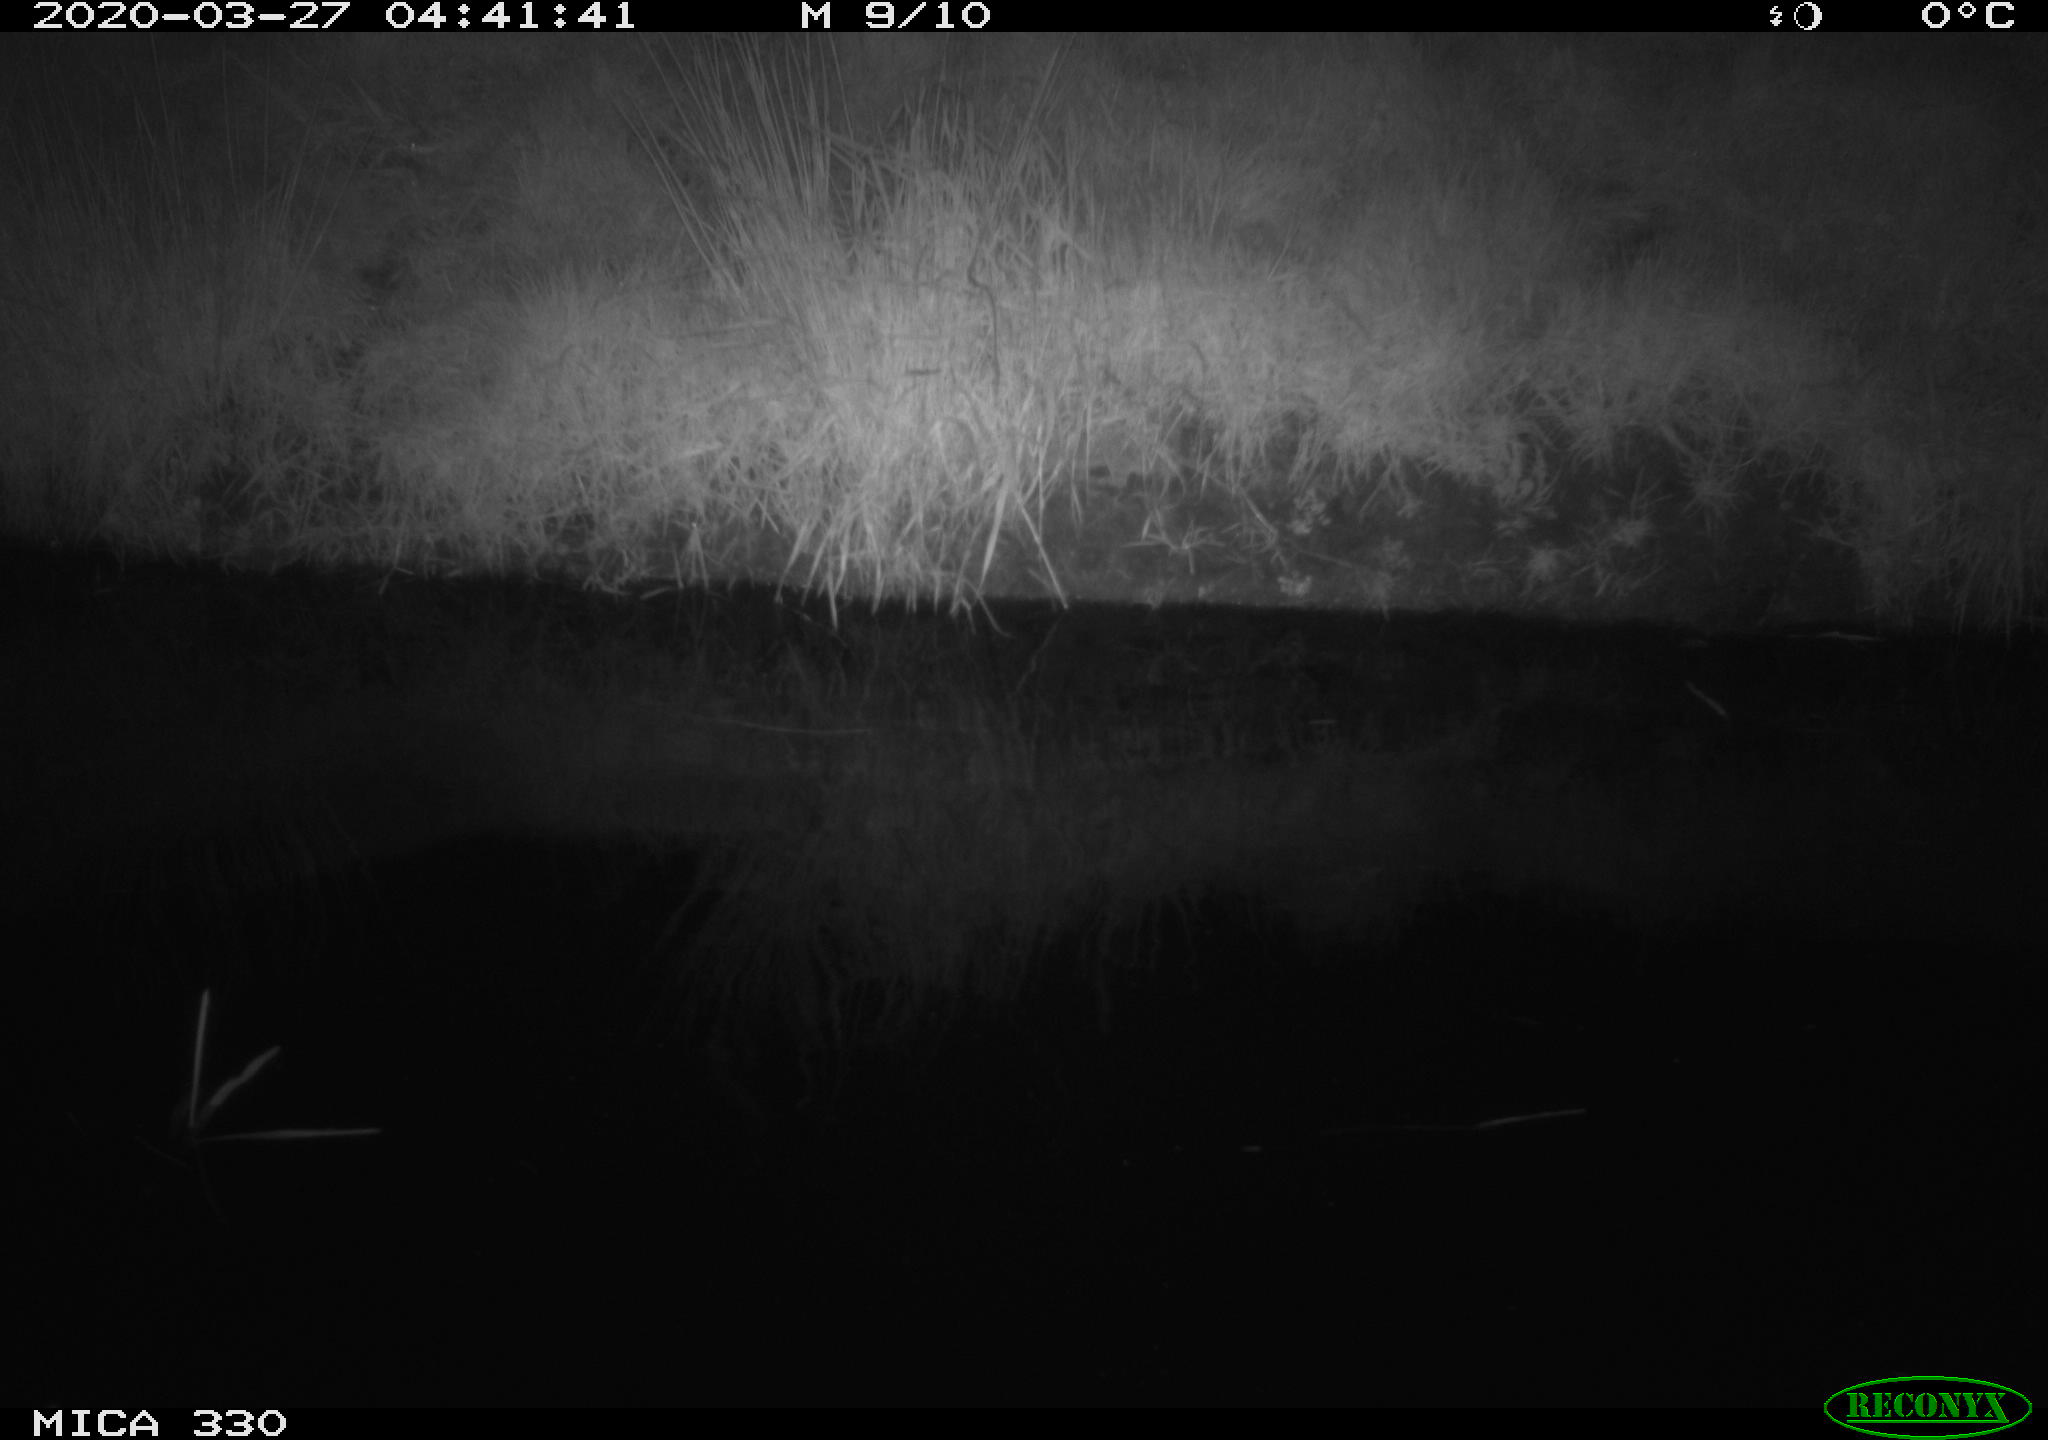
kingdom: Animalia
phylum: Chordata
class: Aves
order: Anseriformes
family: Anatidae
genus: Anas
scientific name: Anas platyrhynchos
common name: Mallard
